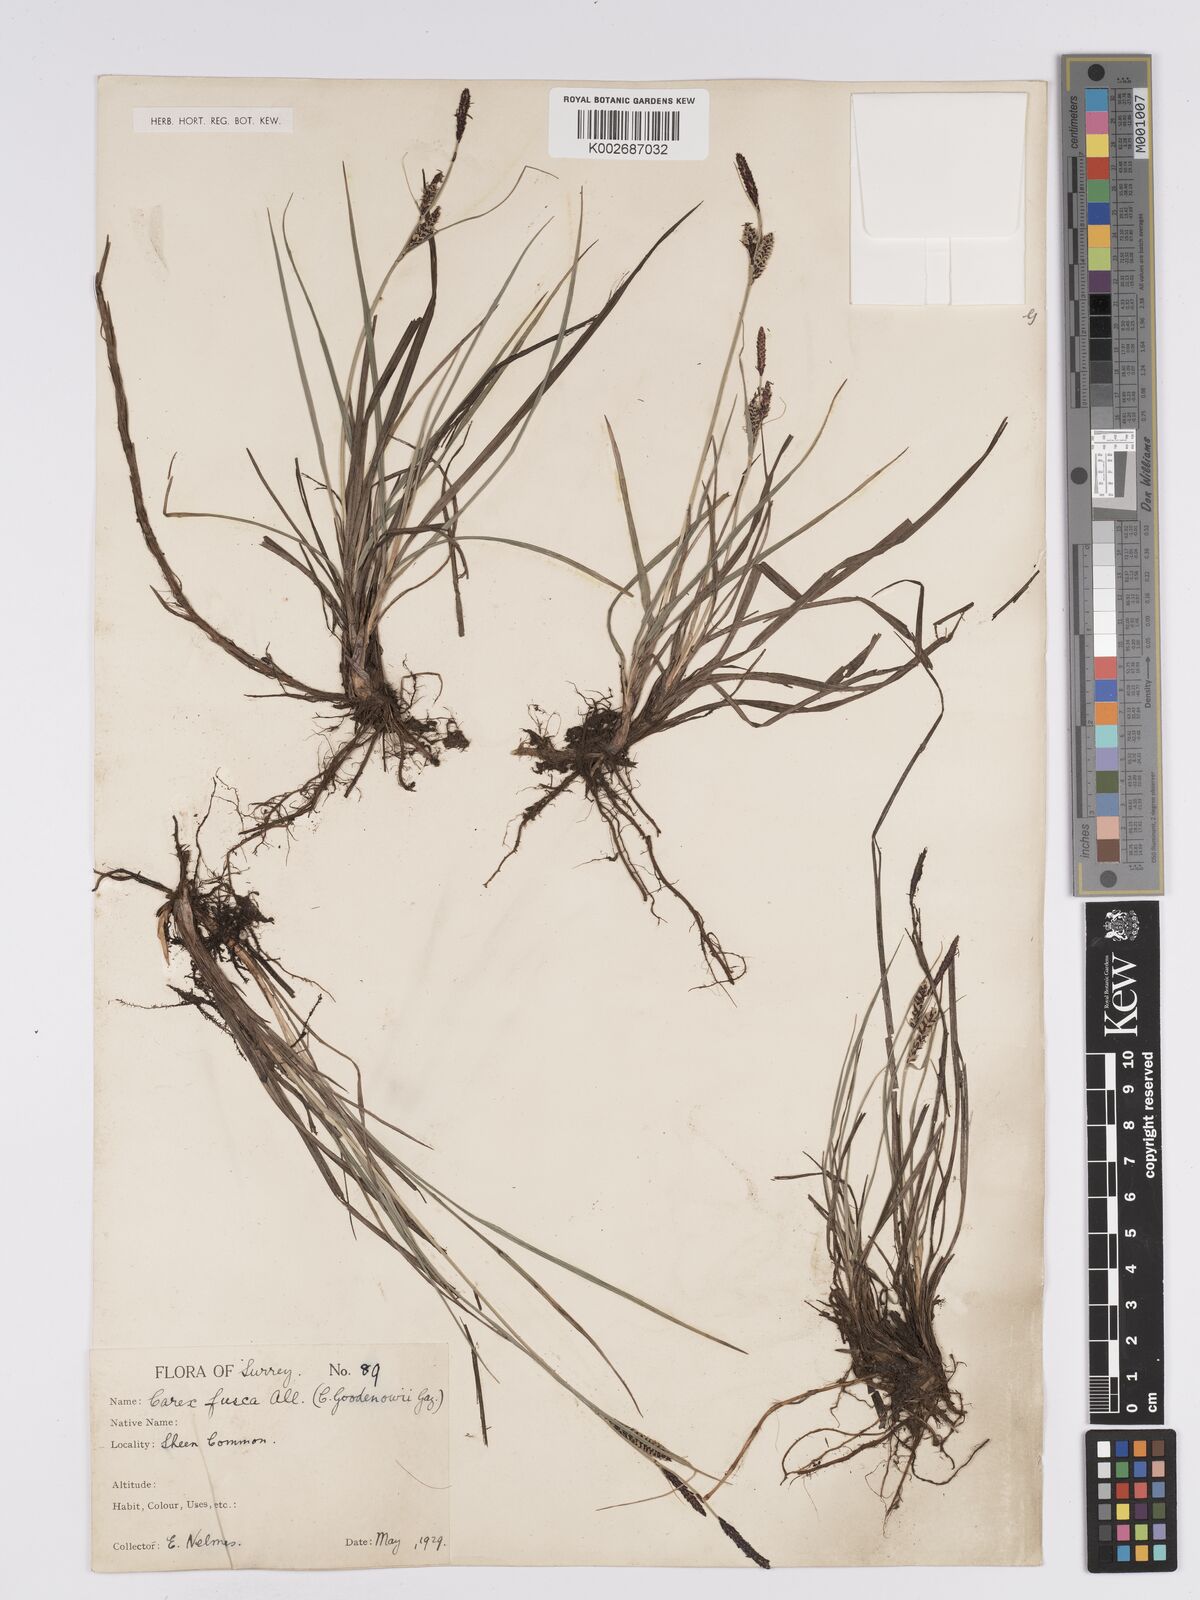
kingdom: Plantae
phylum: Tracheophyta
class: Liliopsida
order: Poales
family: Cyperaceae
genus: Carex
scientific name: Carex nigra
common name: Common sedge
